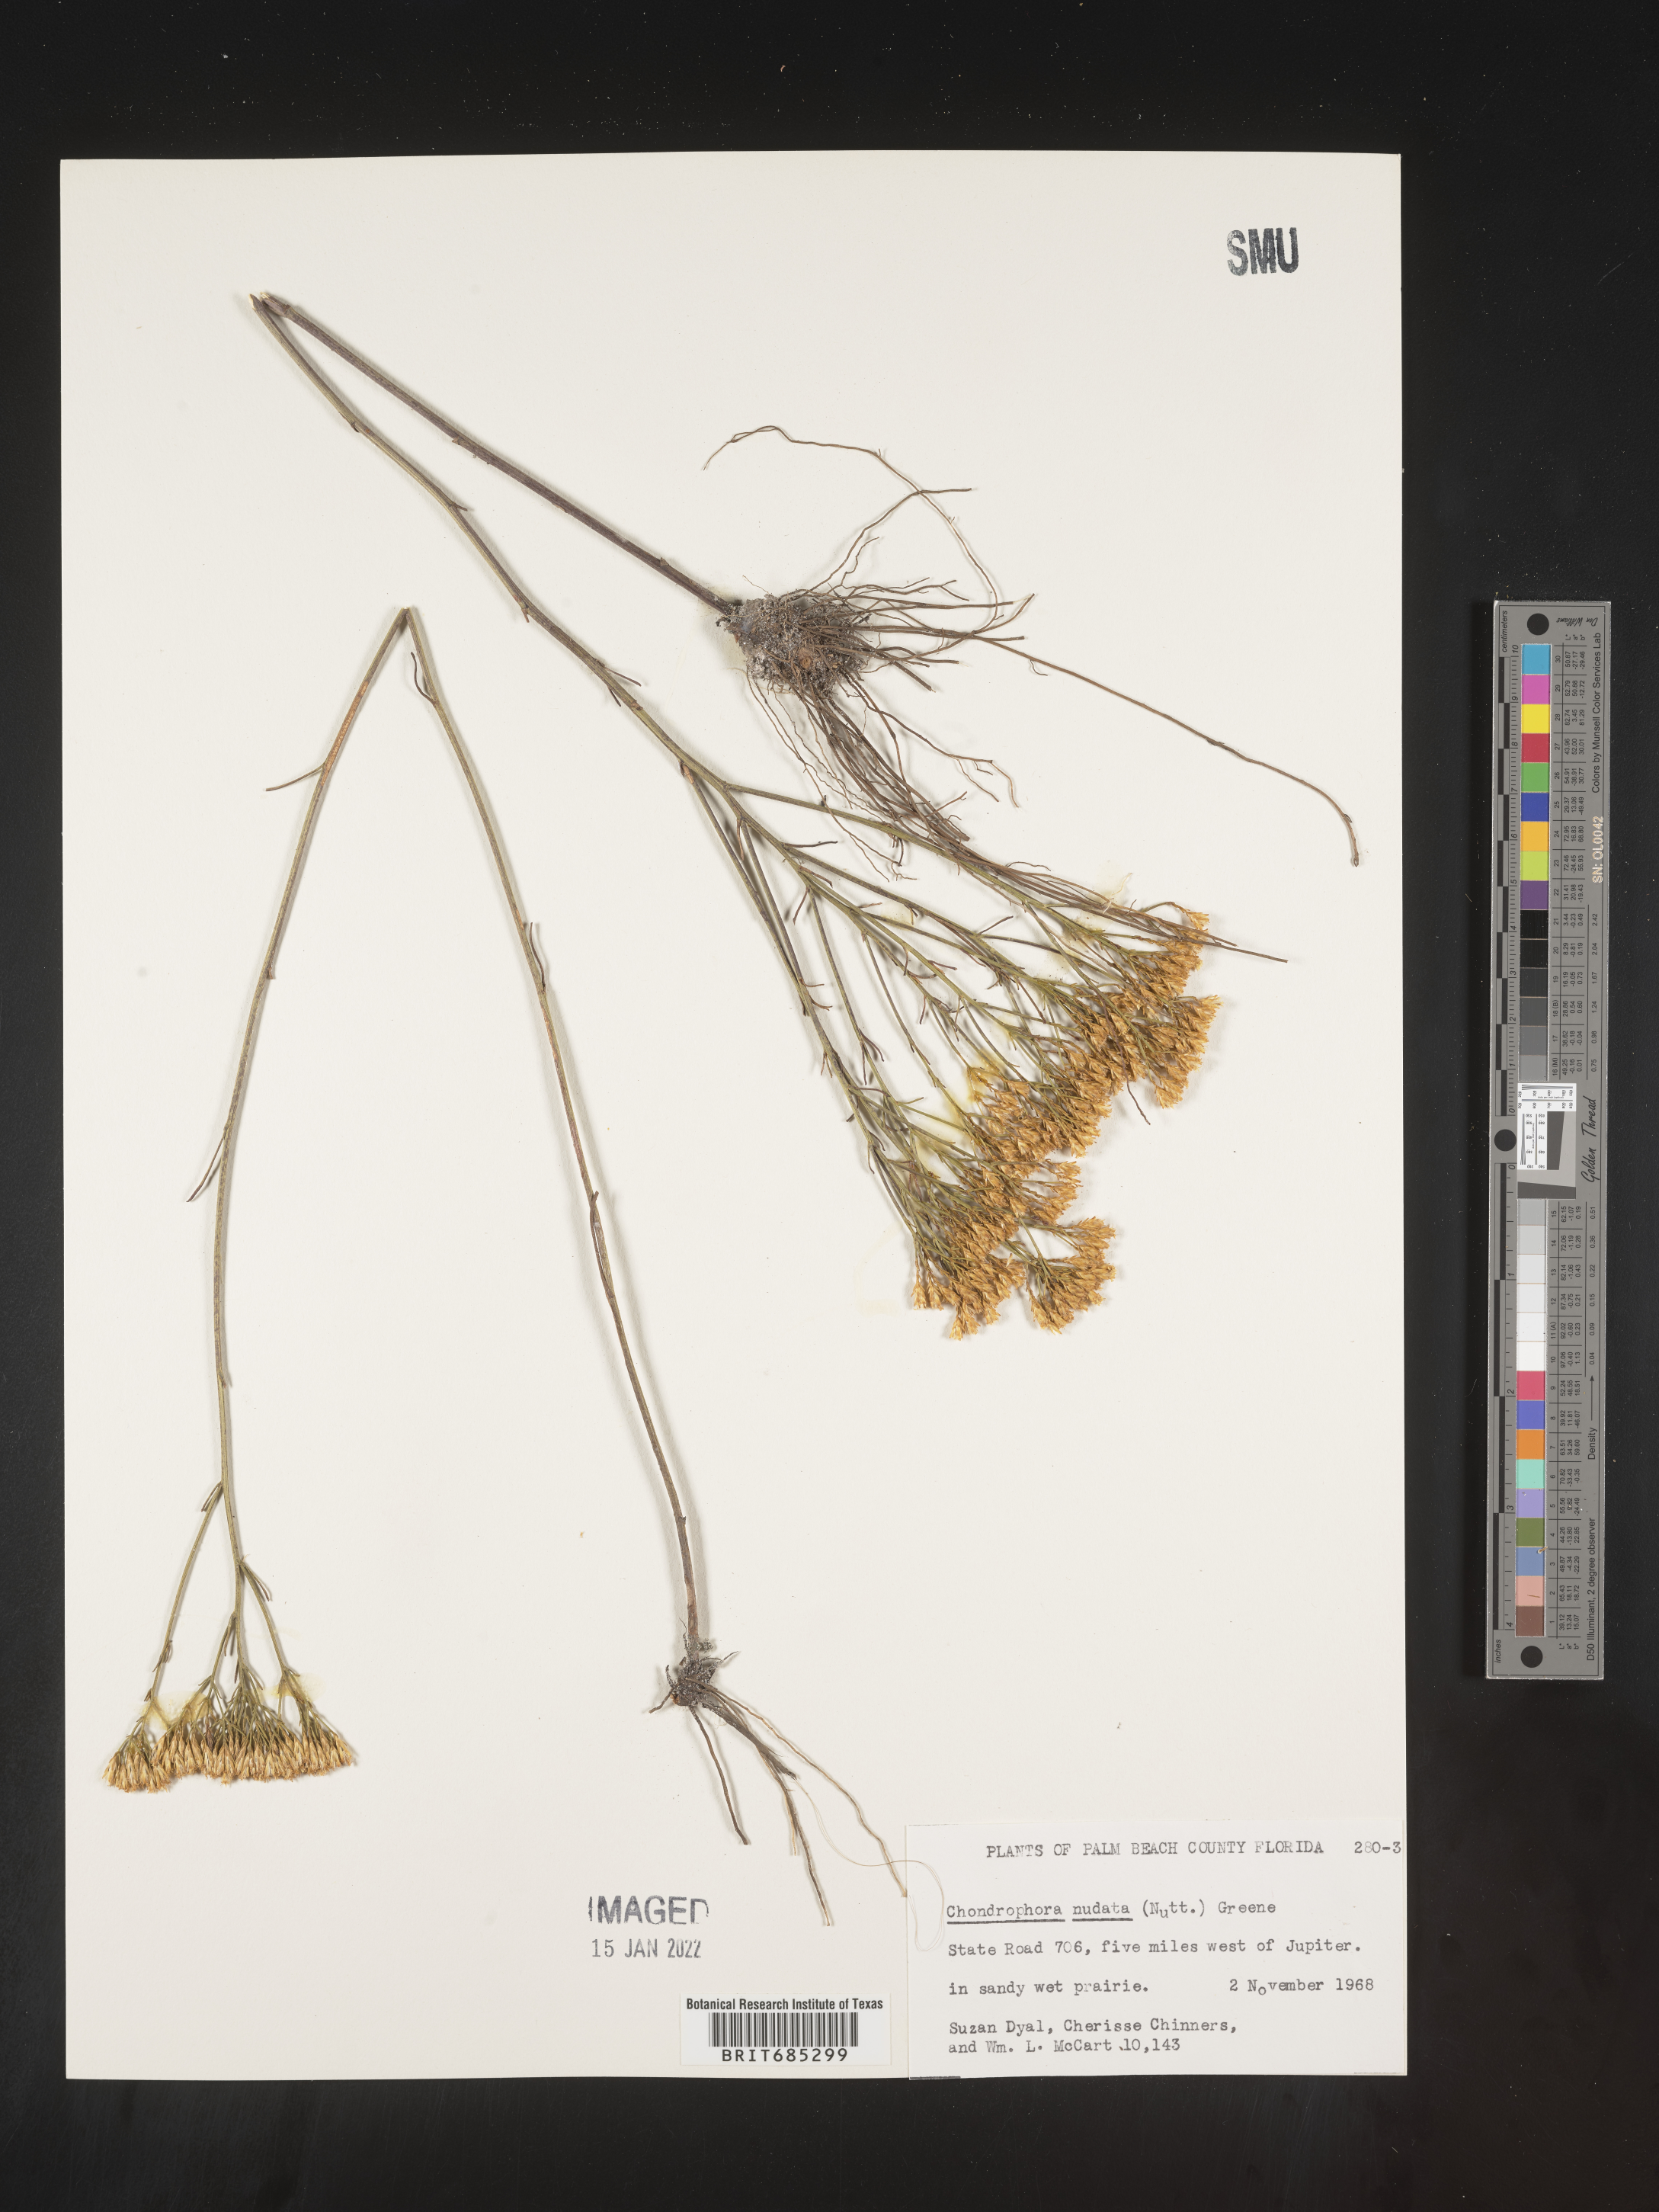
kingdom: Plantae
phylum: Tracheophyta
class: Magnoliopsida
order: Asterales
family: Asteraceae
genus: Bigelowia
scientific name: Bigelowia nudata
